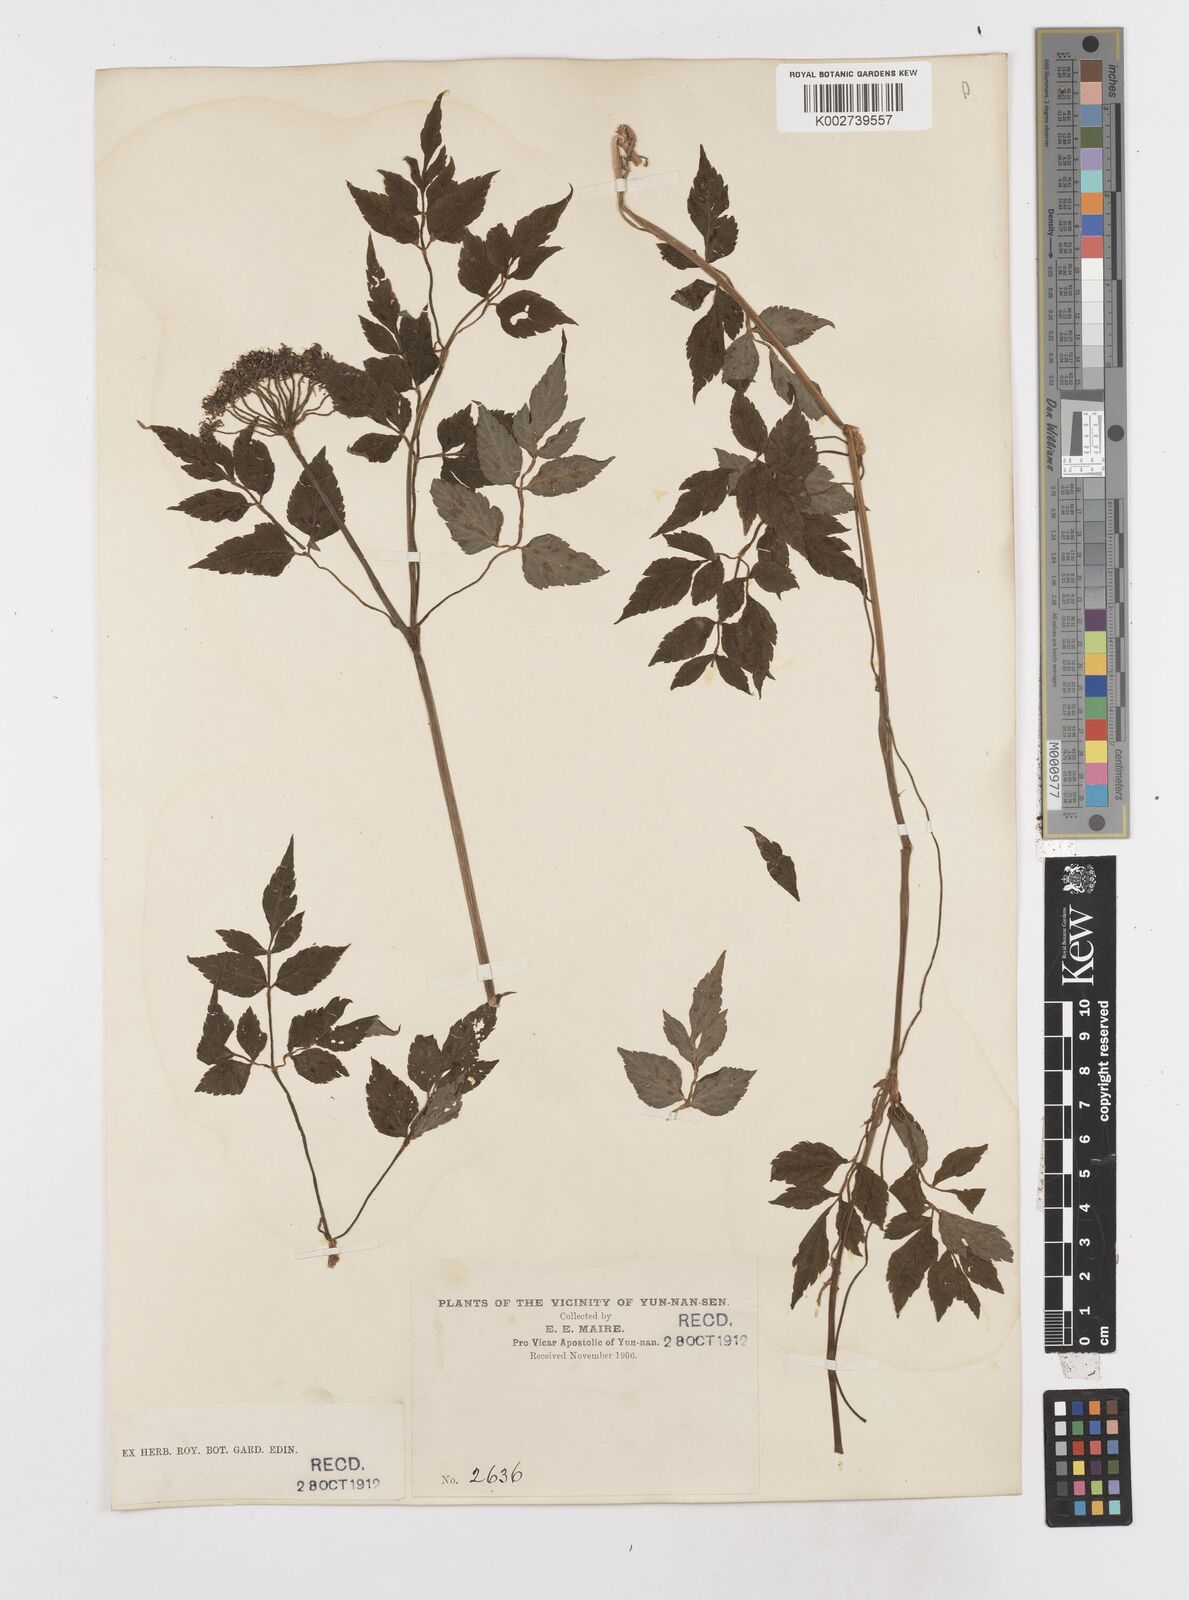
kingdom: Plantae
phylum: Tracheophyta
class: Magnoliopsida
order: Apiales
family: Apiaceae
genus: Oenanthe
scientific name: Oenanthe javanica
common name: Java water-dropwort
